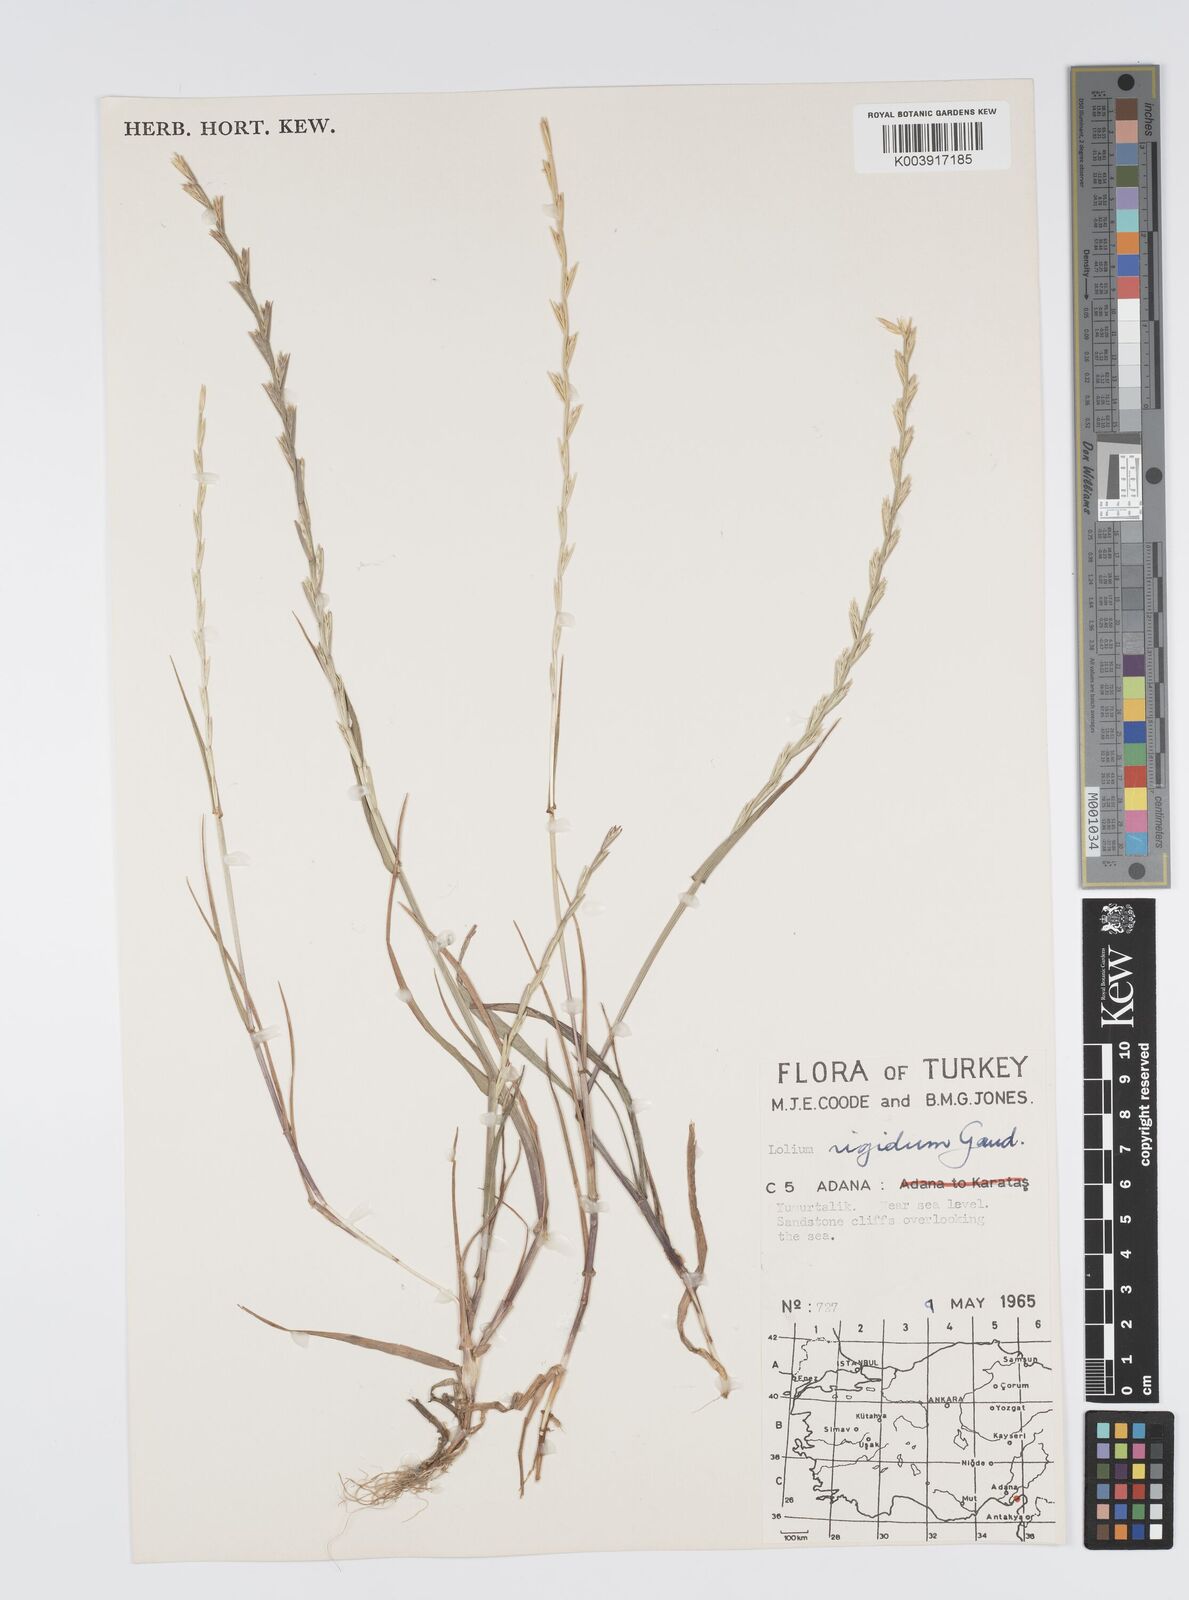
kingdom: Plantae
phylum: Tracheophyta
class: Liliopsida
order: Poales
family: Poaceae
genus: Lolium
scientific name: Lolium rigidum
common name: Wimmera ryegrass
